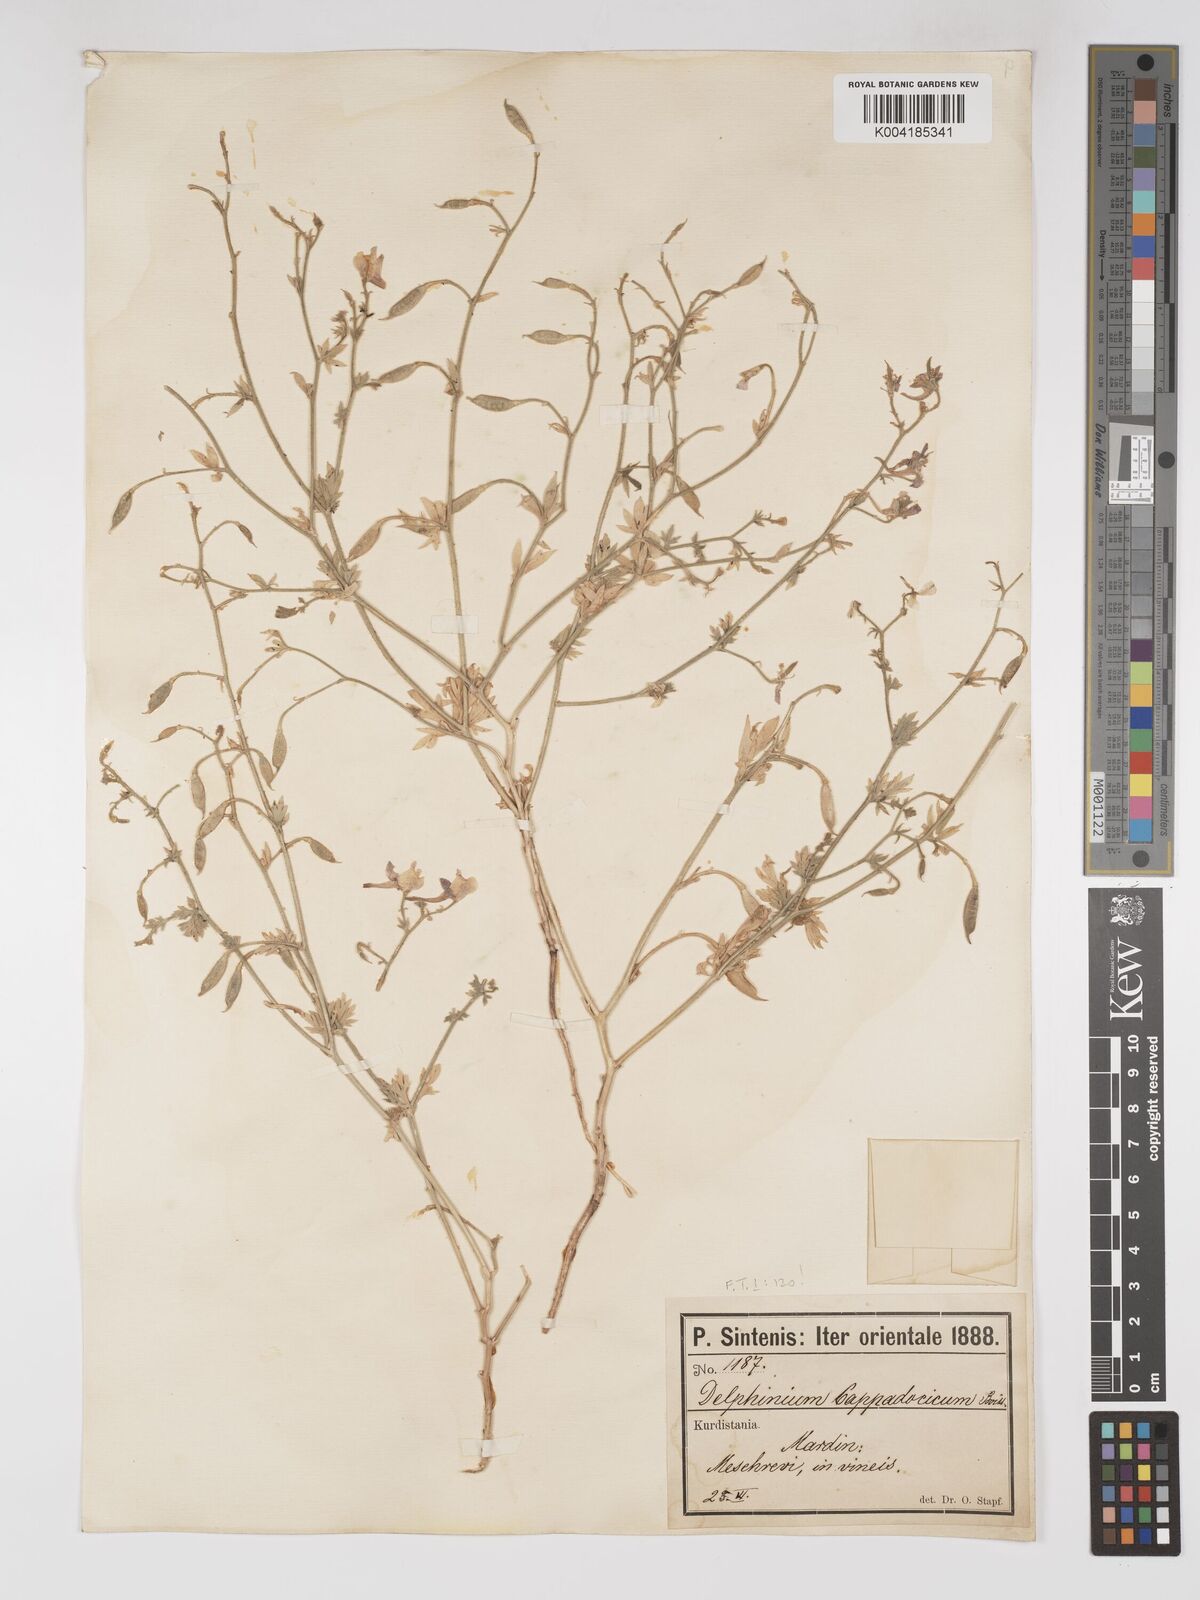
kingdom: Plantae
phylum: Tracheophyta
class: Magnoliopsida
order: Ranunculales
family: Ranunculaceae
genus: Delphinium
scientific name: Delphinium oliverianum
